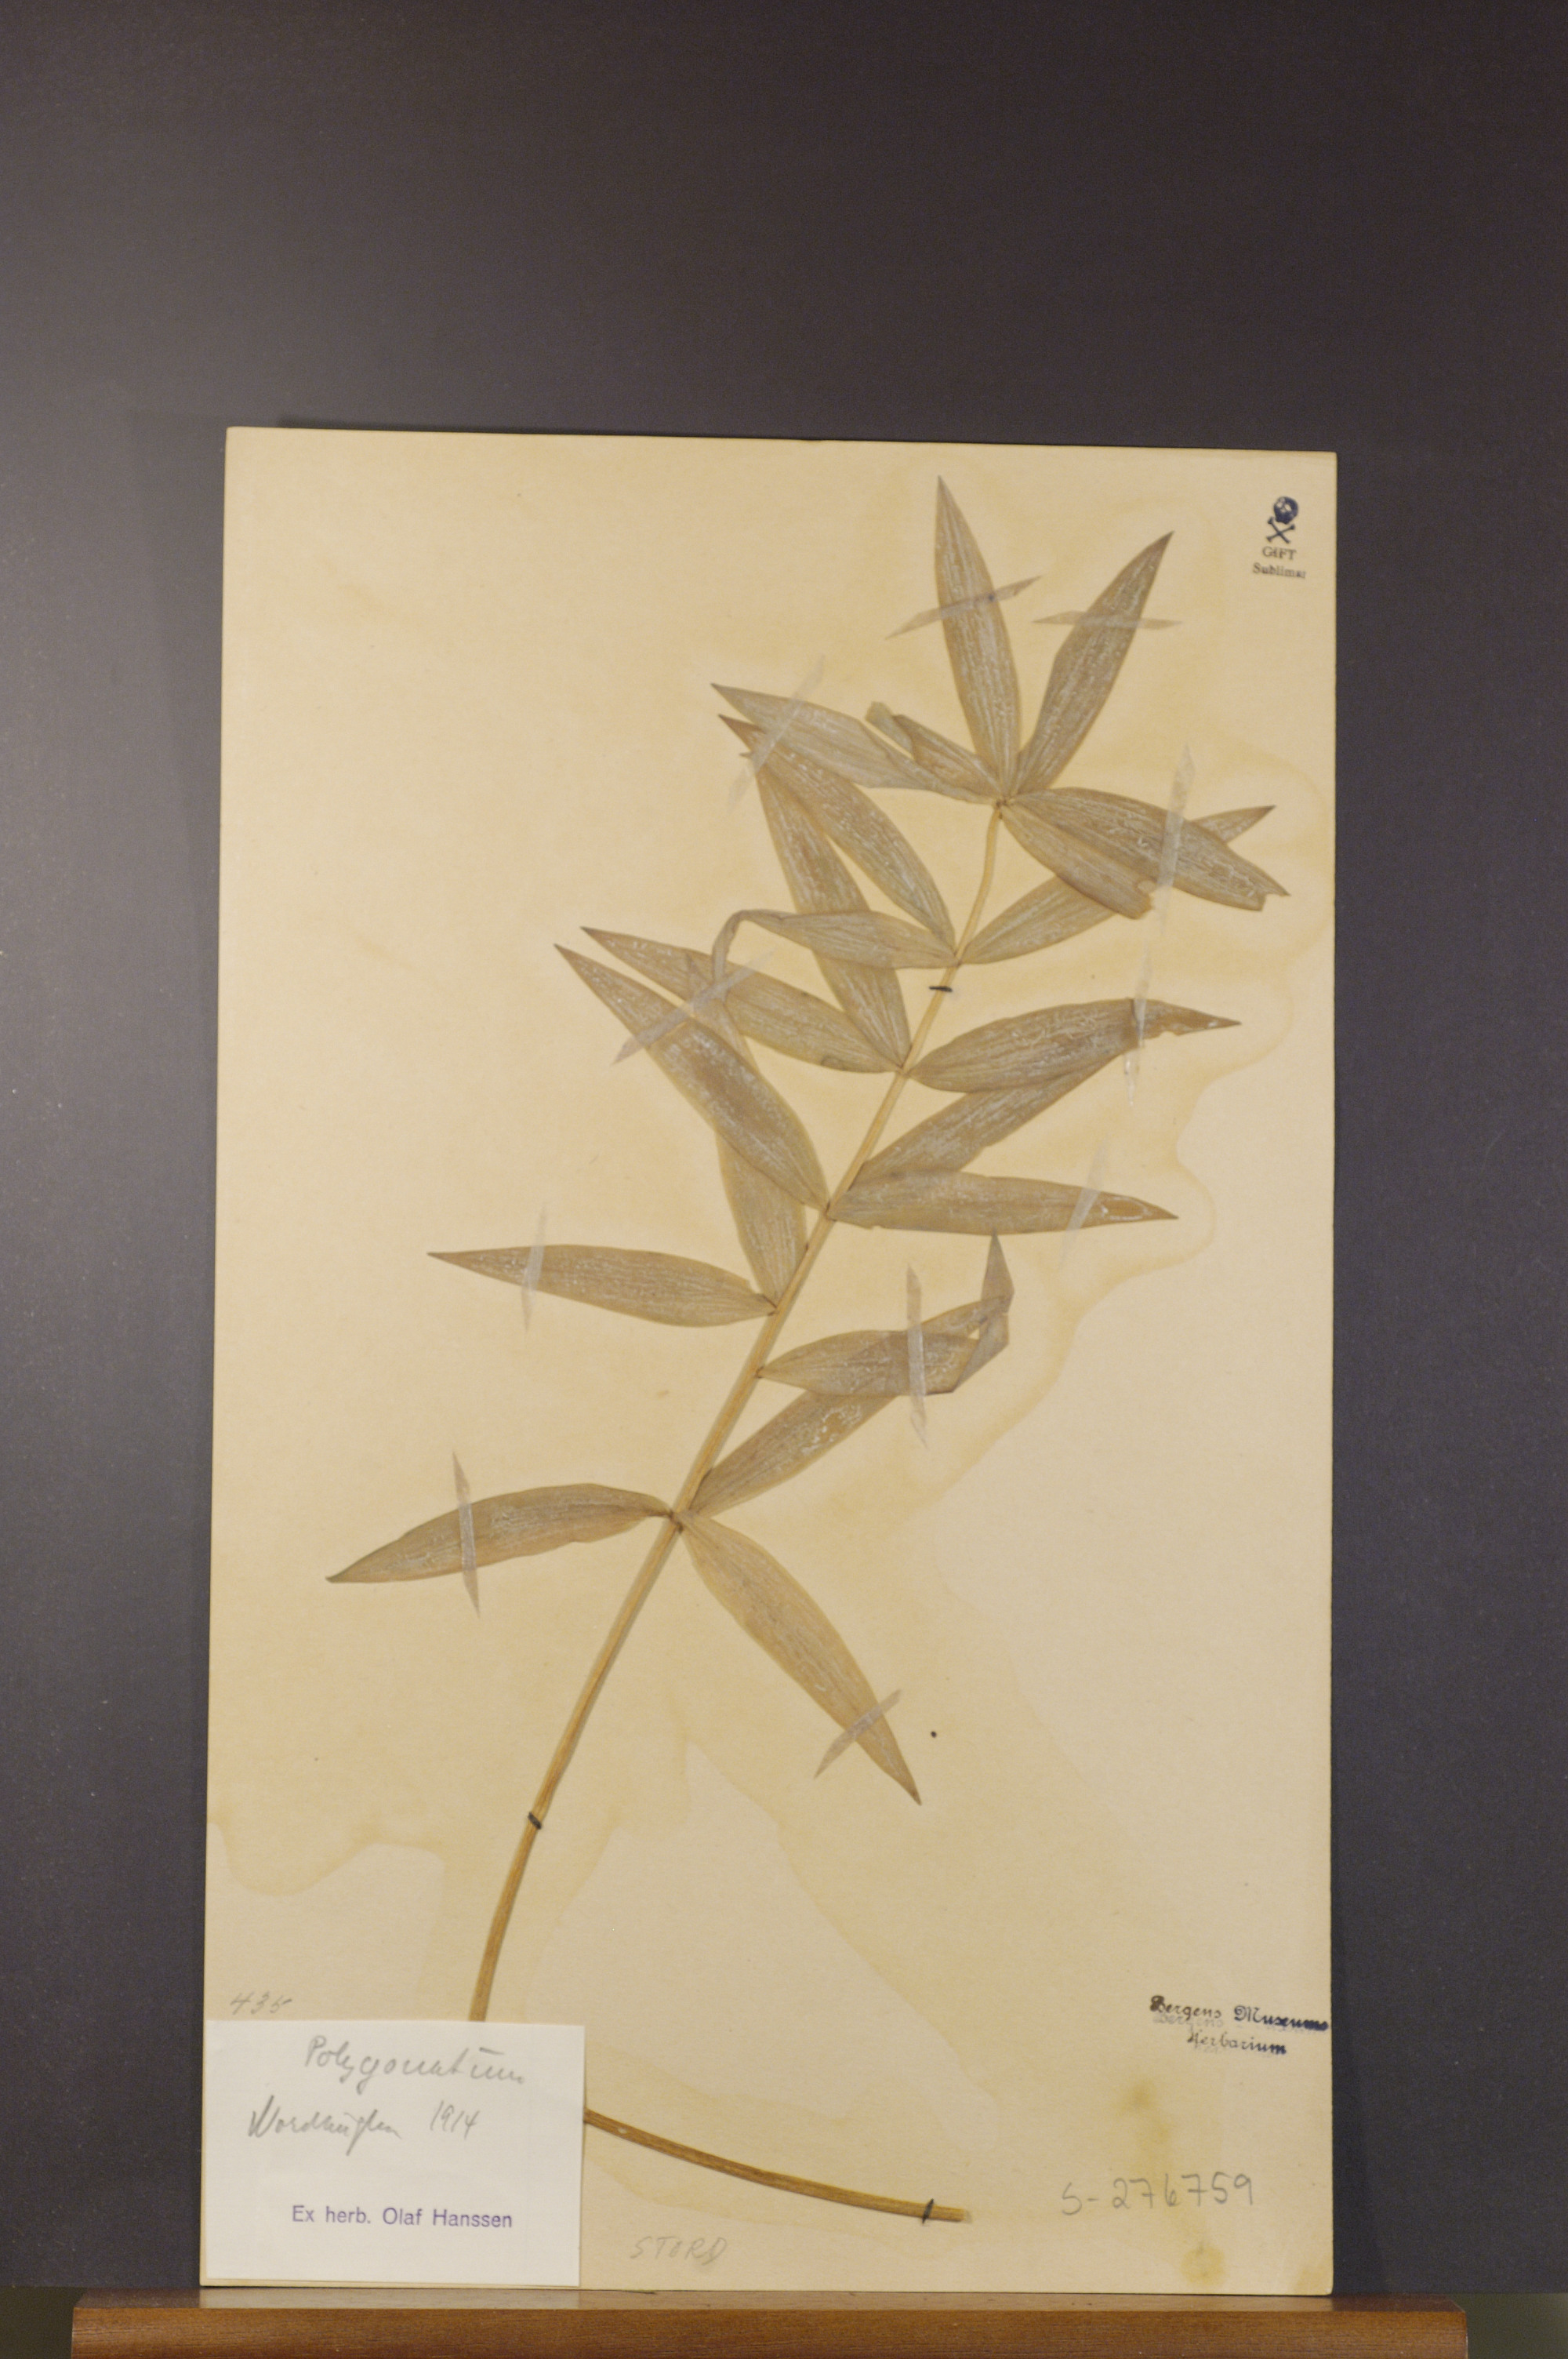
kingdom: Plantae
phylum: Tracheophyta
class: Liliopsida
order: Asparagales
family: Asparagaceae
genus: Polygonatum
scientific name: Polygonatum
